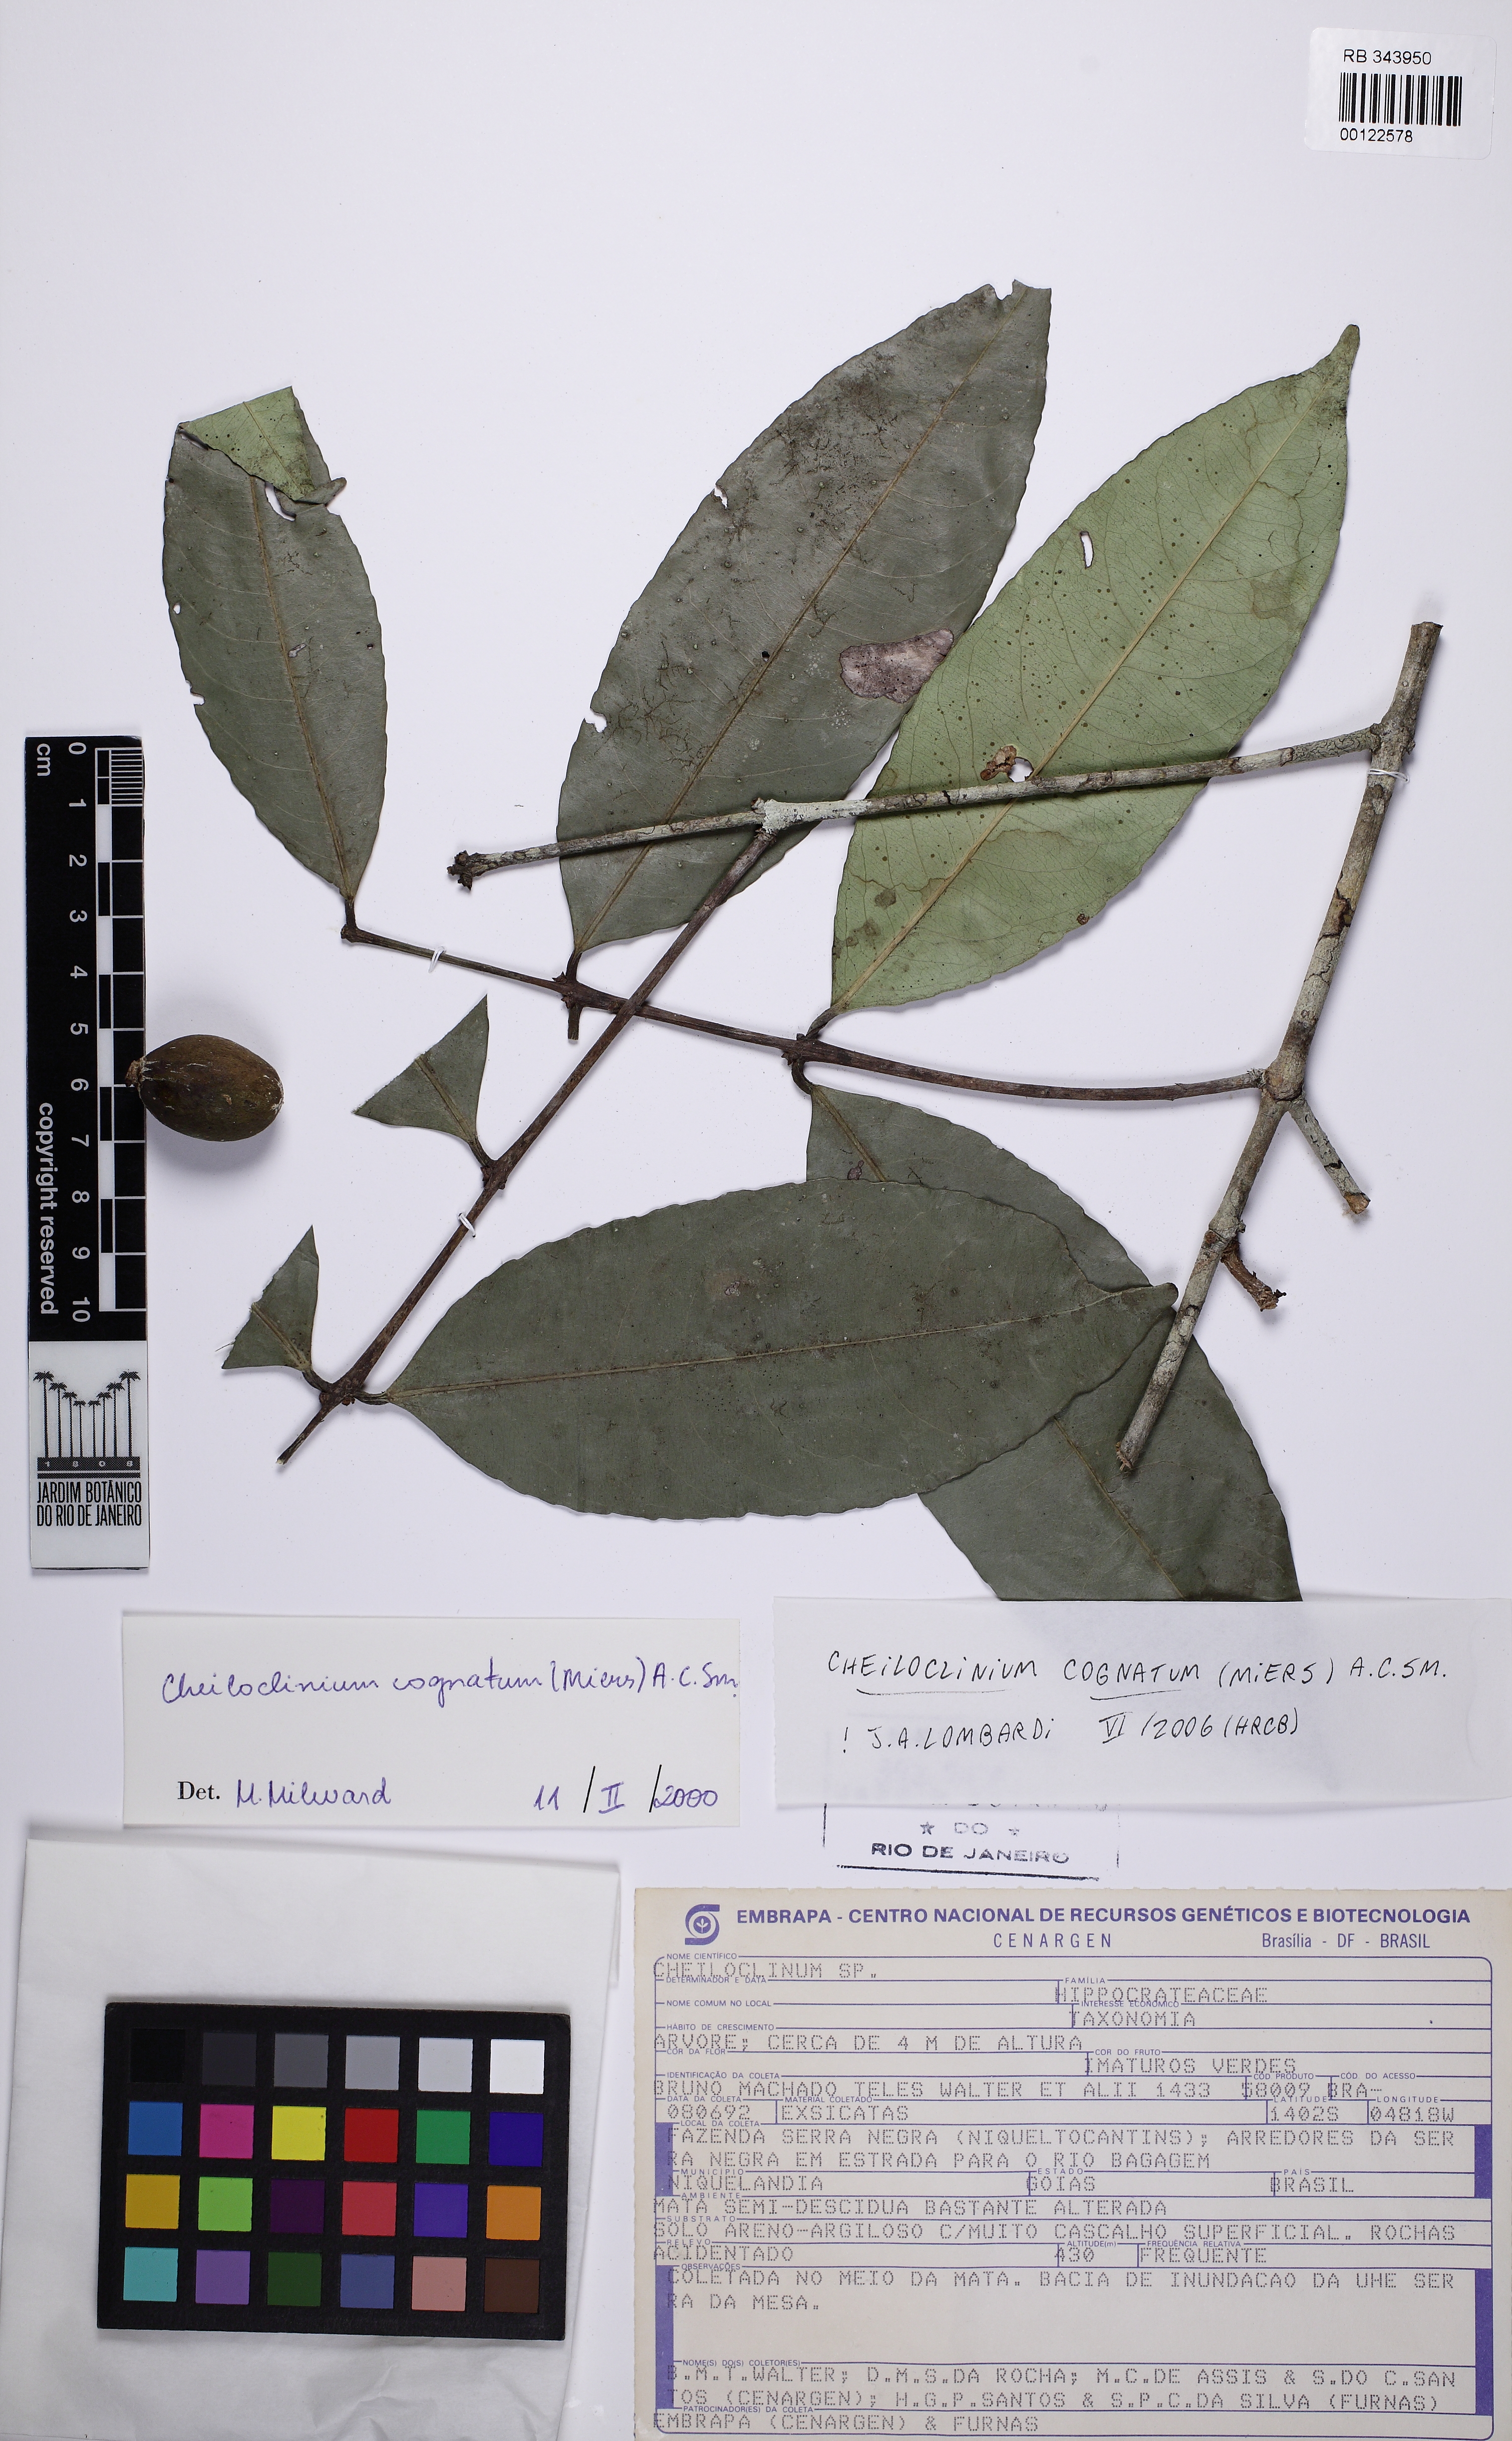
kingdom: Plantae
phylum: Tracheophyta
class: Magnoliopsida
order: Celastrales
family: Celastraceae
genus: Cheiloclinium
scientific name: Cheiloclinium cognatum
